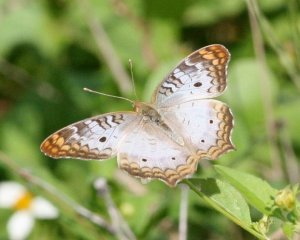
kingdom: Animalia
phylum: Arthropoda
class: Insecta
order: Lepidoptera
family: Nymphalidae
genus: Anartia
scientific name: Anartia jatrophae
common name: White Peacock
